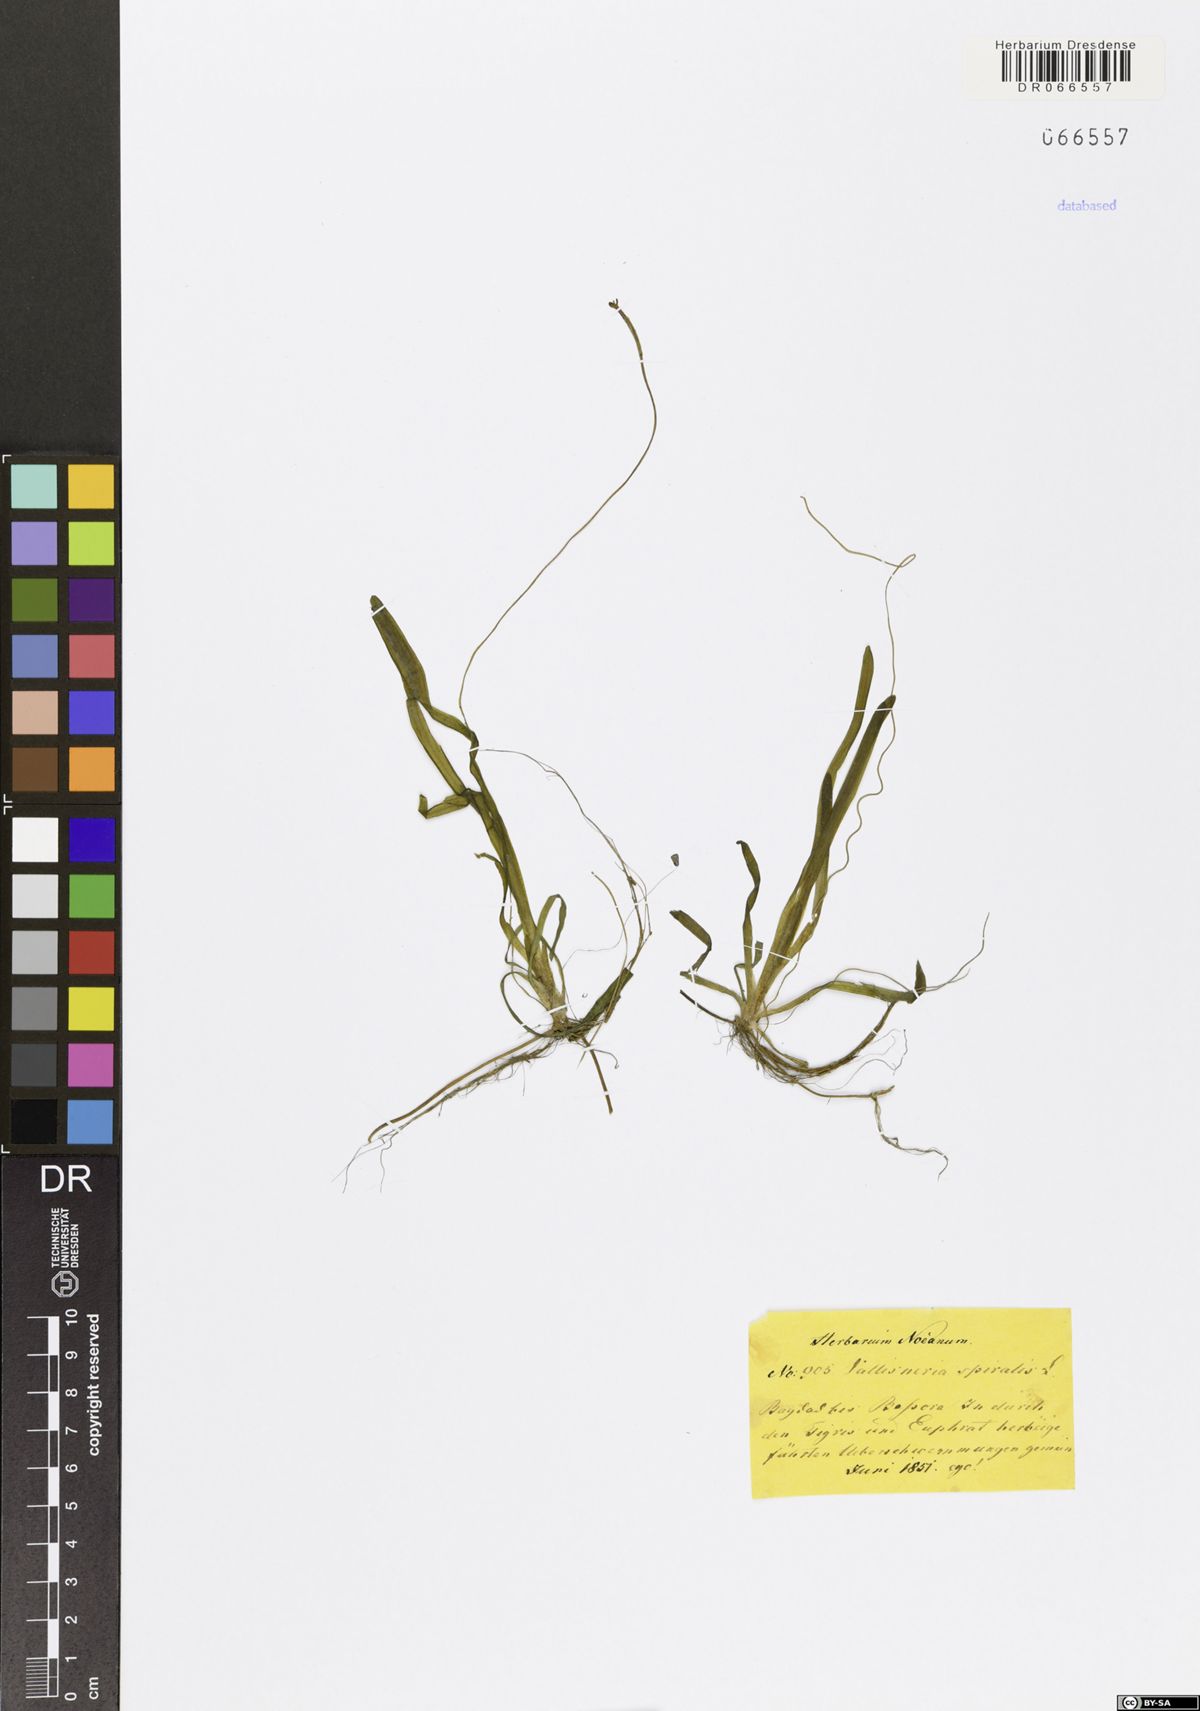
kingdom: Plantae
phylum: Tracheophyta
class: Liliopsida
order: Alismatales
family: Hydrocharitaceae
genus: Vallisneria
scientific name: Vallisneria spiralis
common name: Tapegrass
